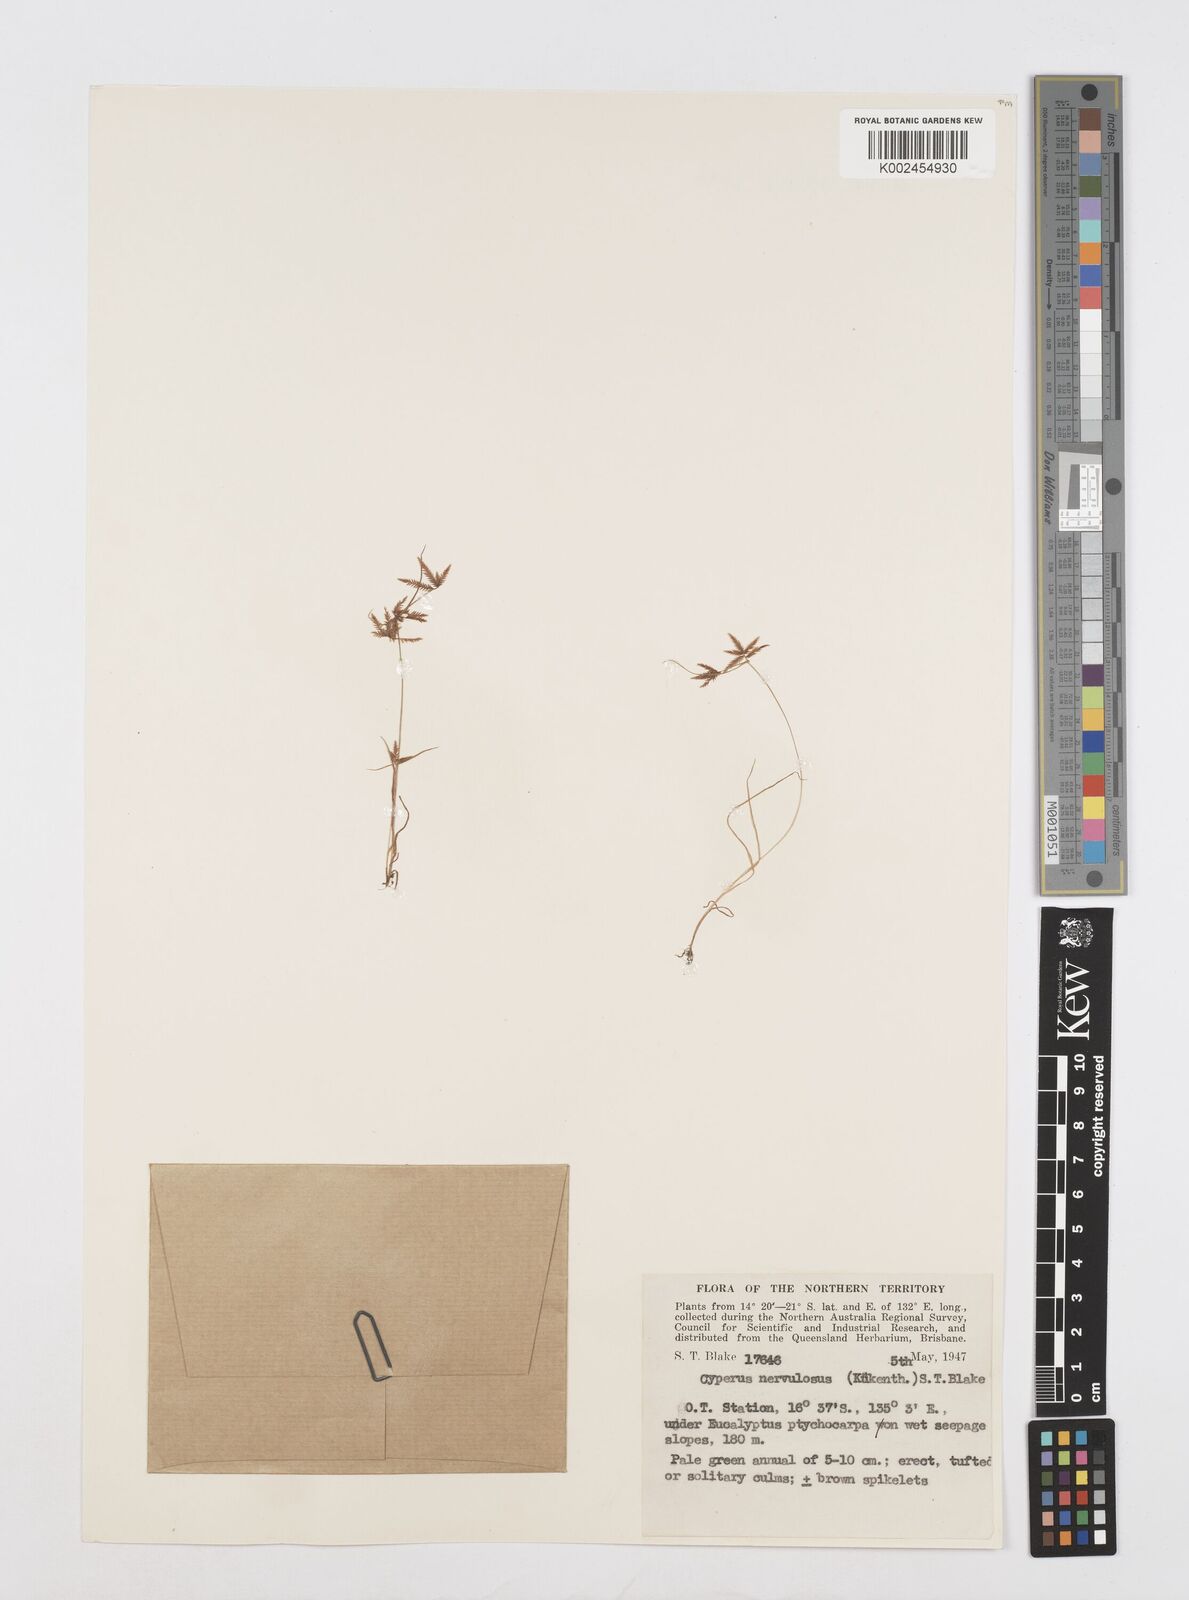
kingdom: Plantae
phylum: Tracheophyta
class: Liliopsida
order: Poales
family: Cyperaceae
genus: Cyperus
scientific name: Cyperus nervulosus
